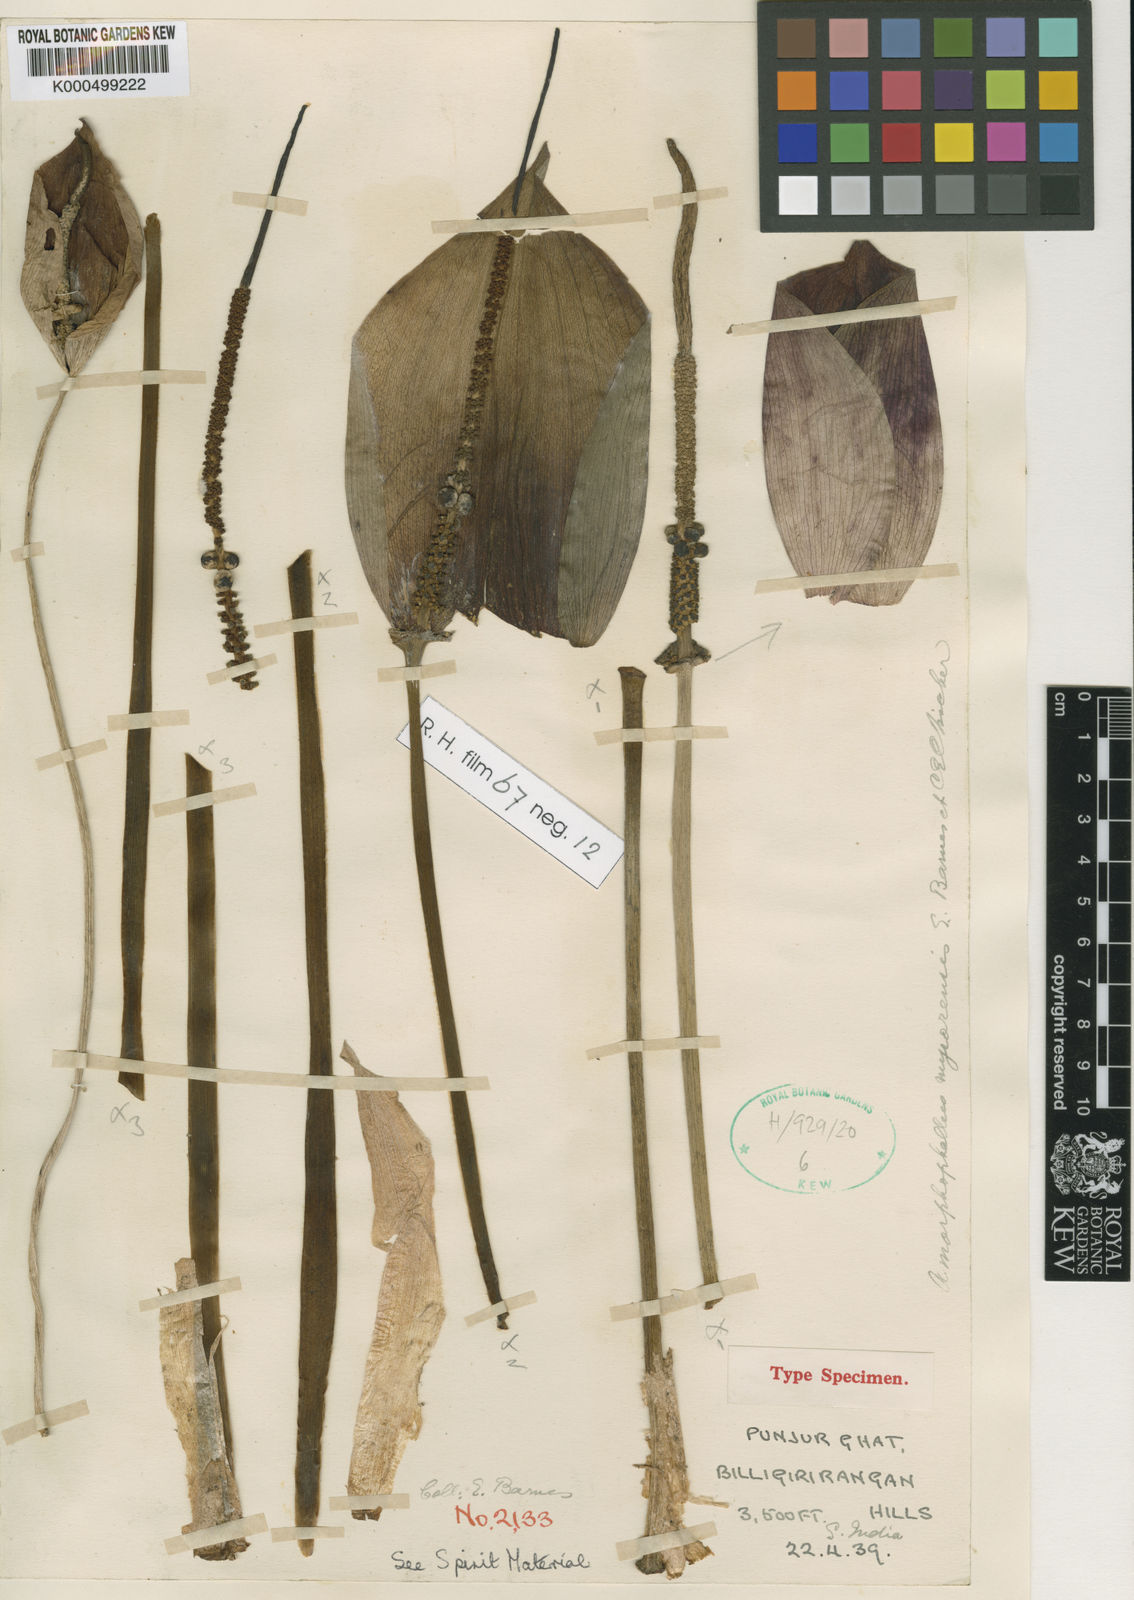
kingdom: Plantae
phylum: Tracheophyta
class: Liliopsida
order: Alismatales
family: Araceae
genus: Amorphophallus
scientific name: Amorphophallus mysorensis
